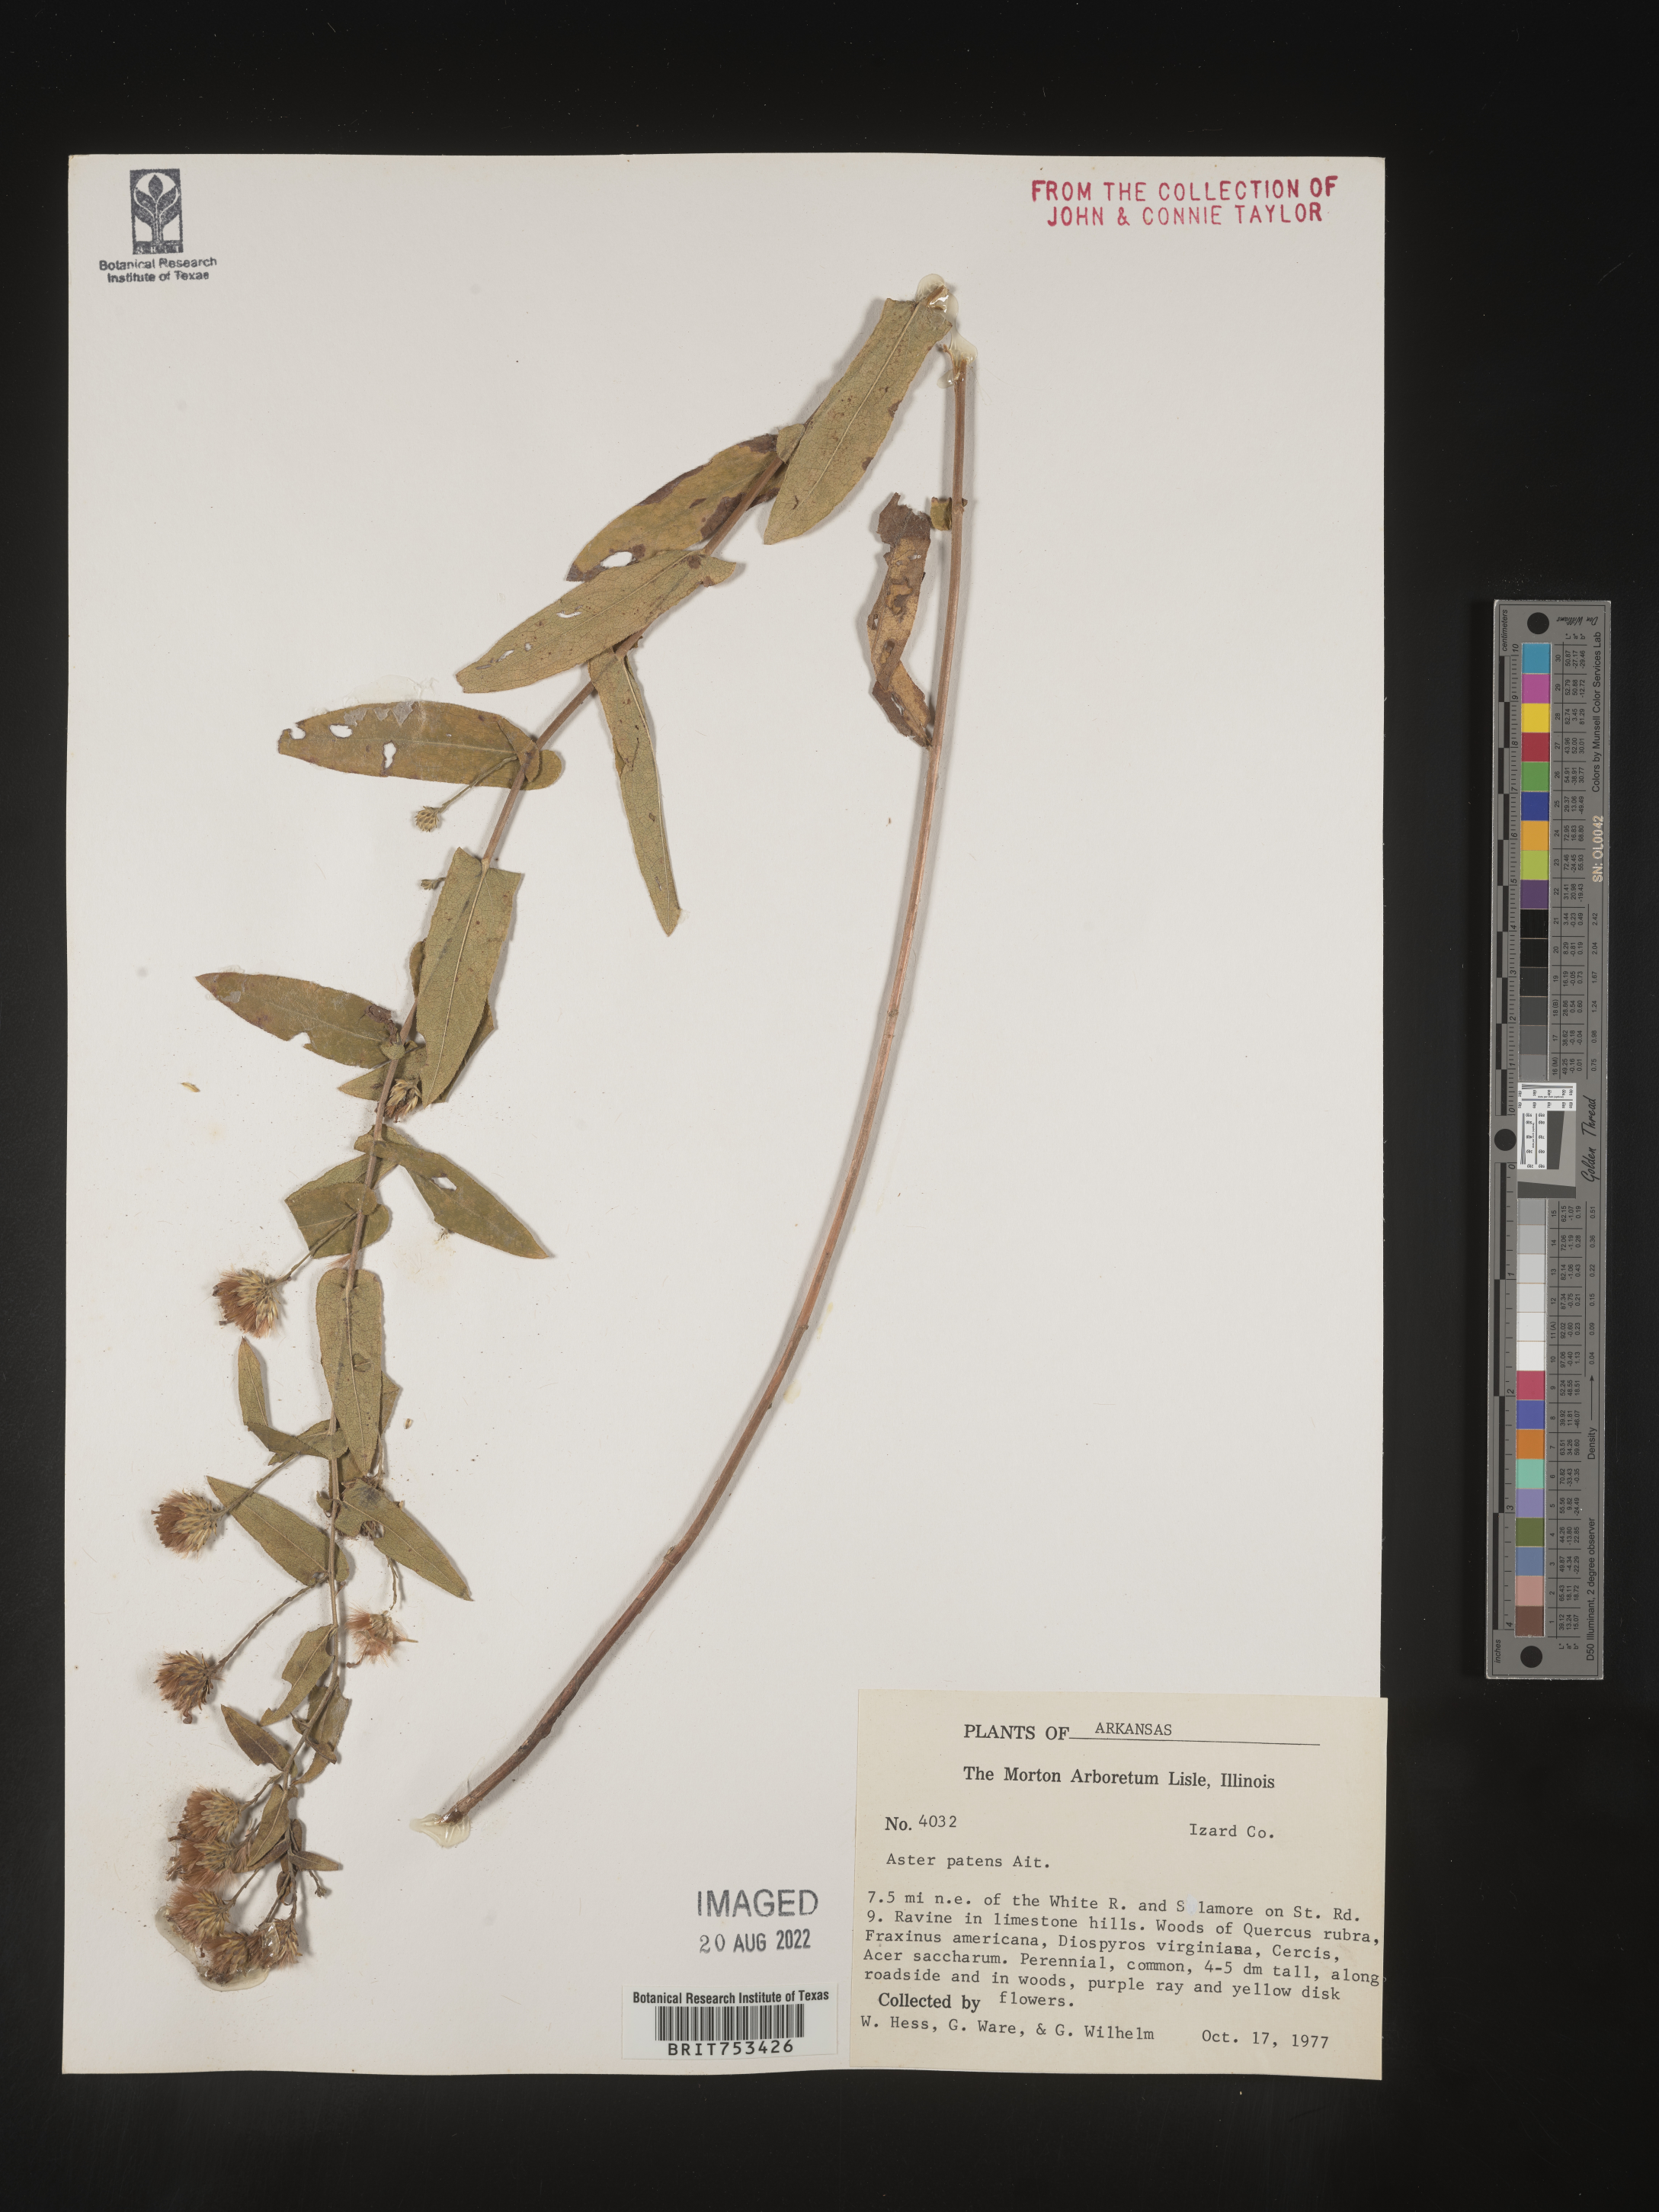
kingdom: Plantae
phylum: Tracheophyta
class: Magnoliopsida
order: Asterales
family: Asteraceae
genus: Symphyotrichum
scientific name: Symphyotrichum patens
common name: Late purple aster
